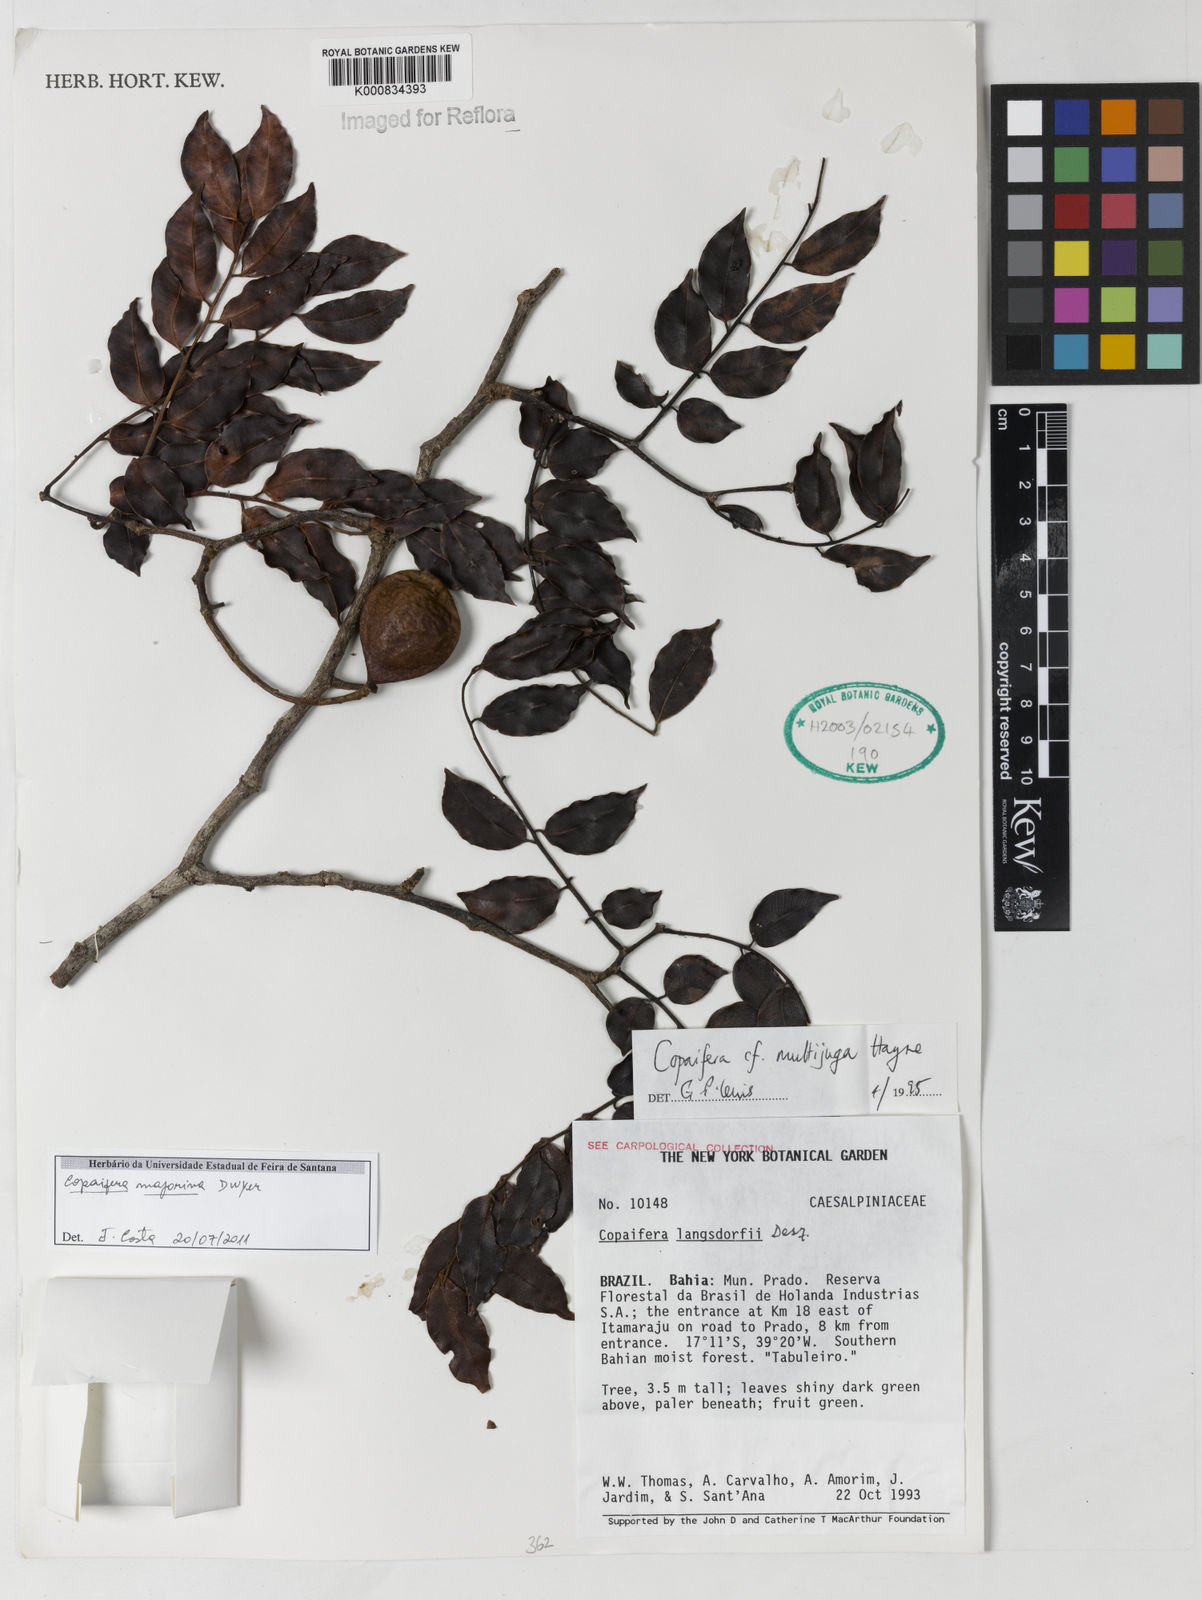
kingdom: Plantae
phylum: Tracheophyta
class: Magnoliopsida
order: Fabales
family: Fabaceae
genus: Copaifera
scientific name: Copaifera majorina
